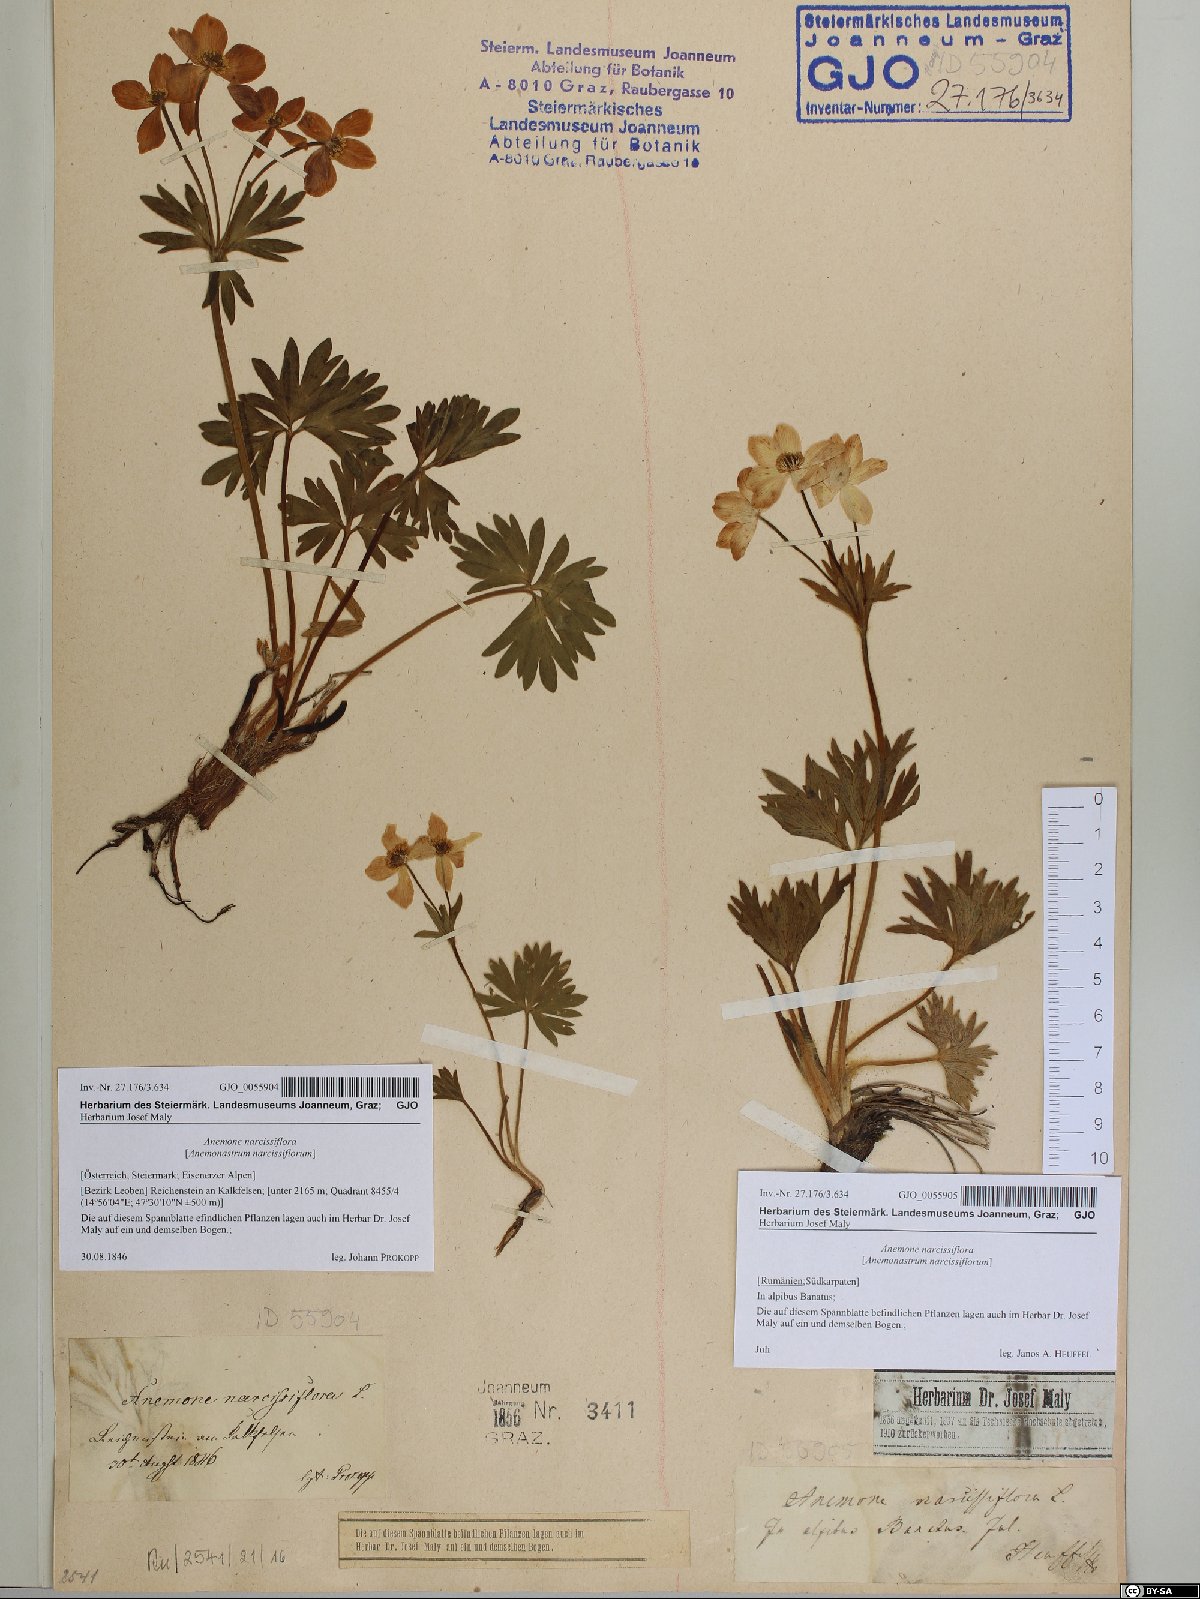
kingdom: Plantae
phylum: Tracheophyta
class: Magnoliopsida
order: Ranunculales
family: Ranunculaceae
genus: Anemonastrum
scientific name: Anemonastrum narcissiflorum
